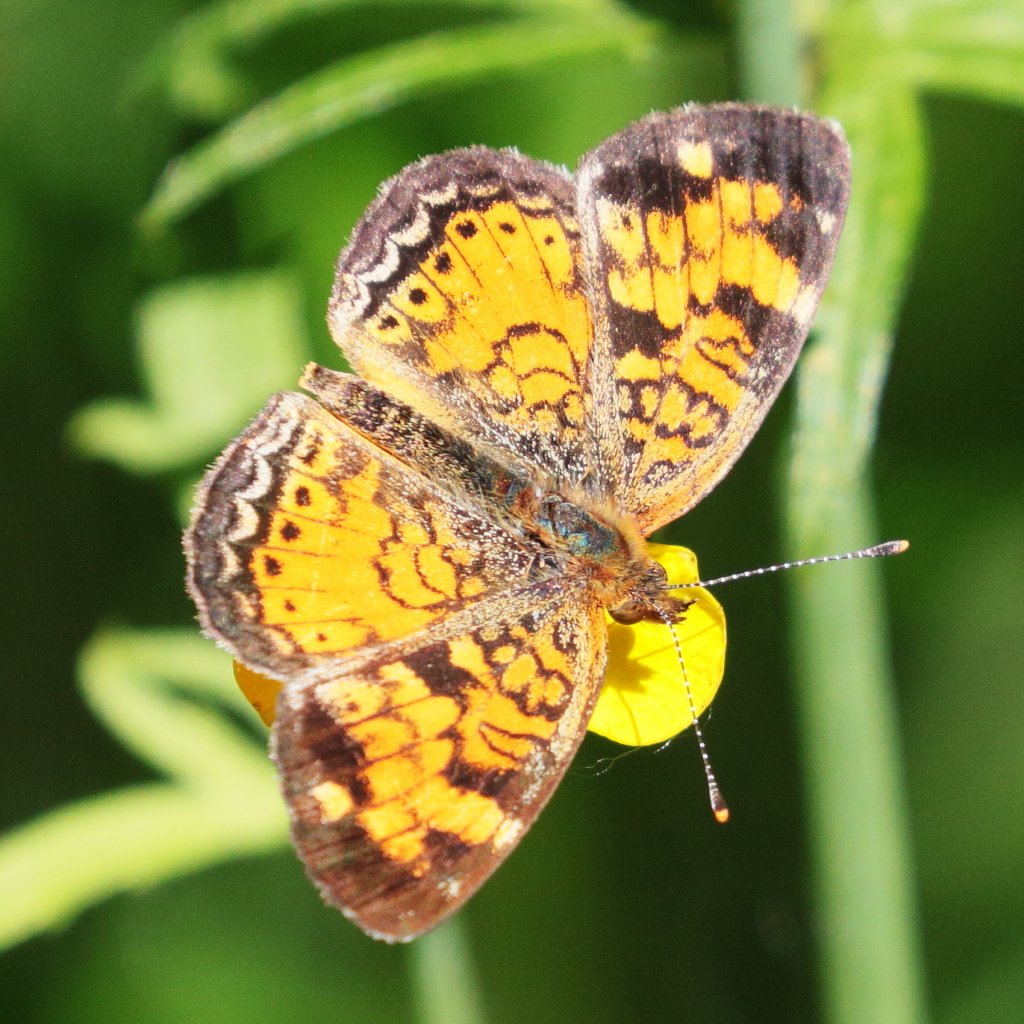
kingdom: Animalia
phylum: Arthropoda
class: Insecta
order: Lepidoptera
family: Nymphalidae
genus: Phyciodes
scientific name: Phyciodes tharos
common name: Northern Crescent
